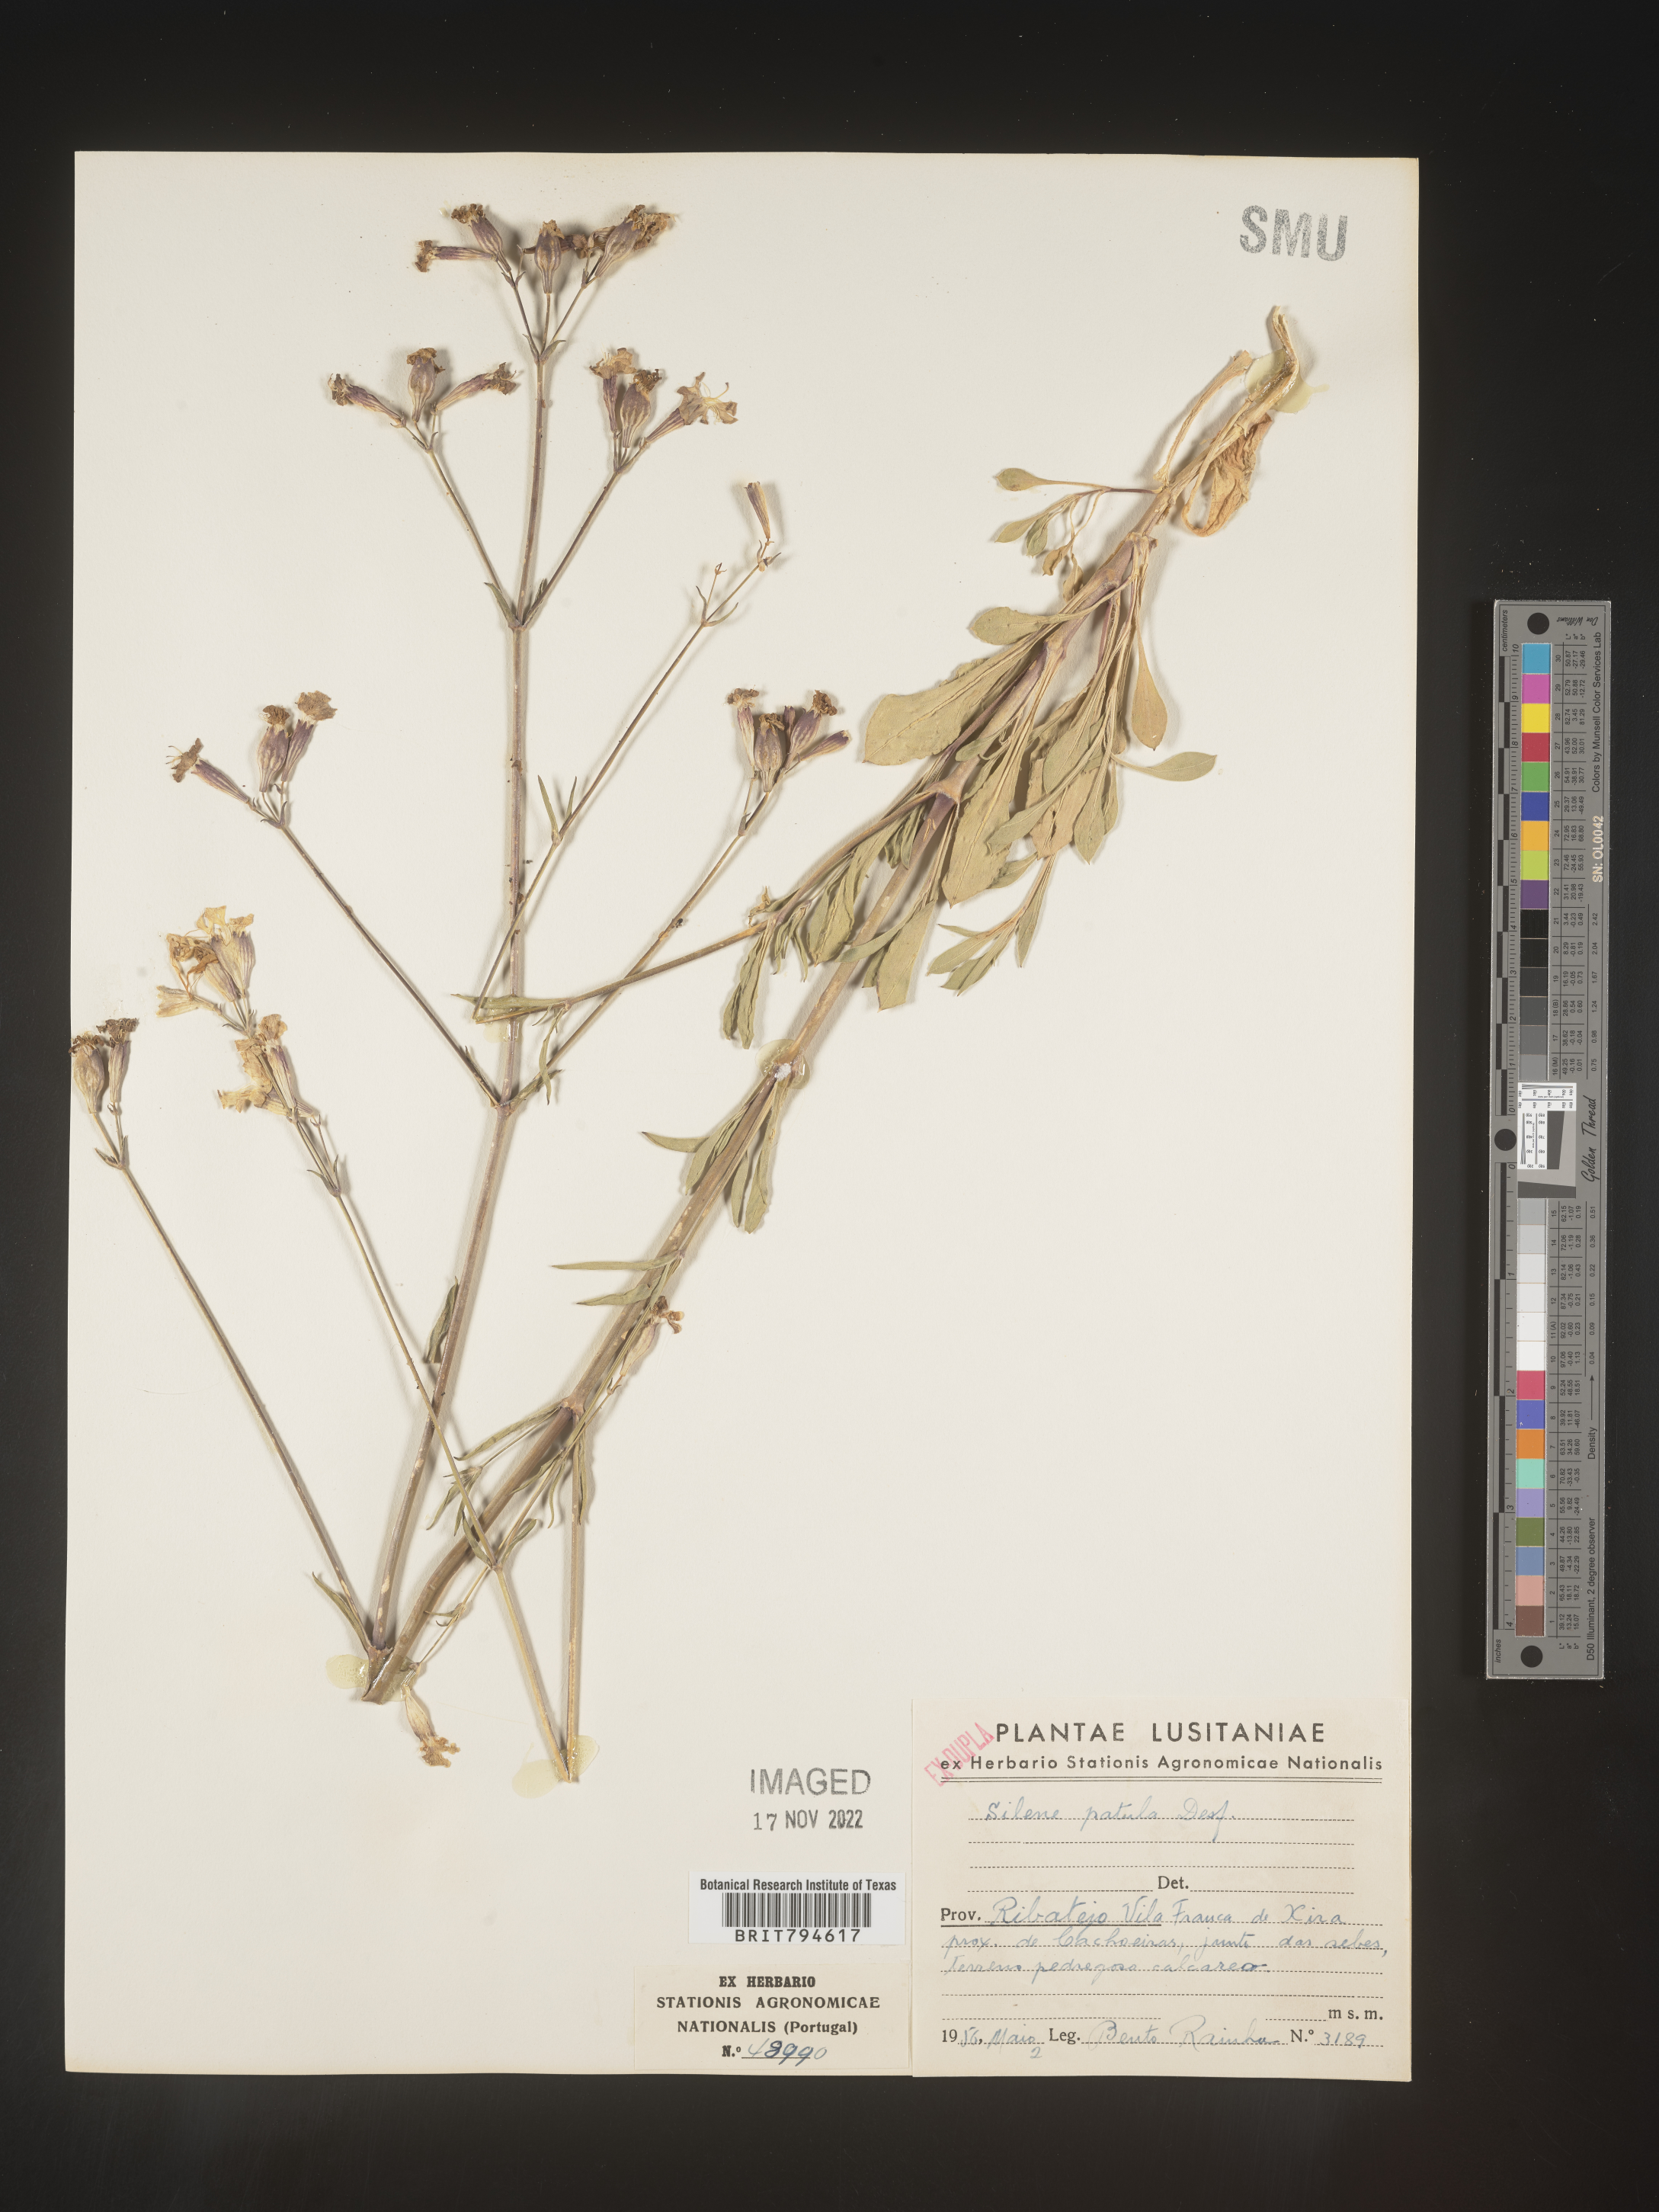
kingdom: Plantae
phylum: Tracheophyta
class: Magnoliopsida
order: Caryophyllales
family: Caryophyllaceae
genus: Silene
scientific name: Silene patula
